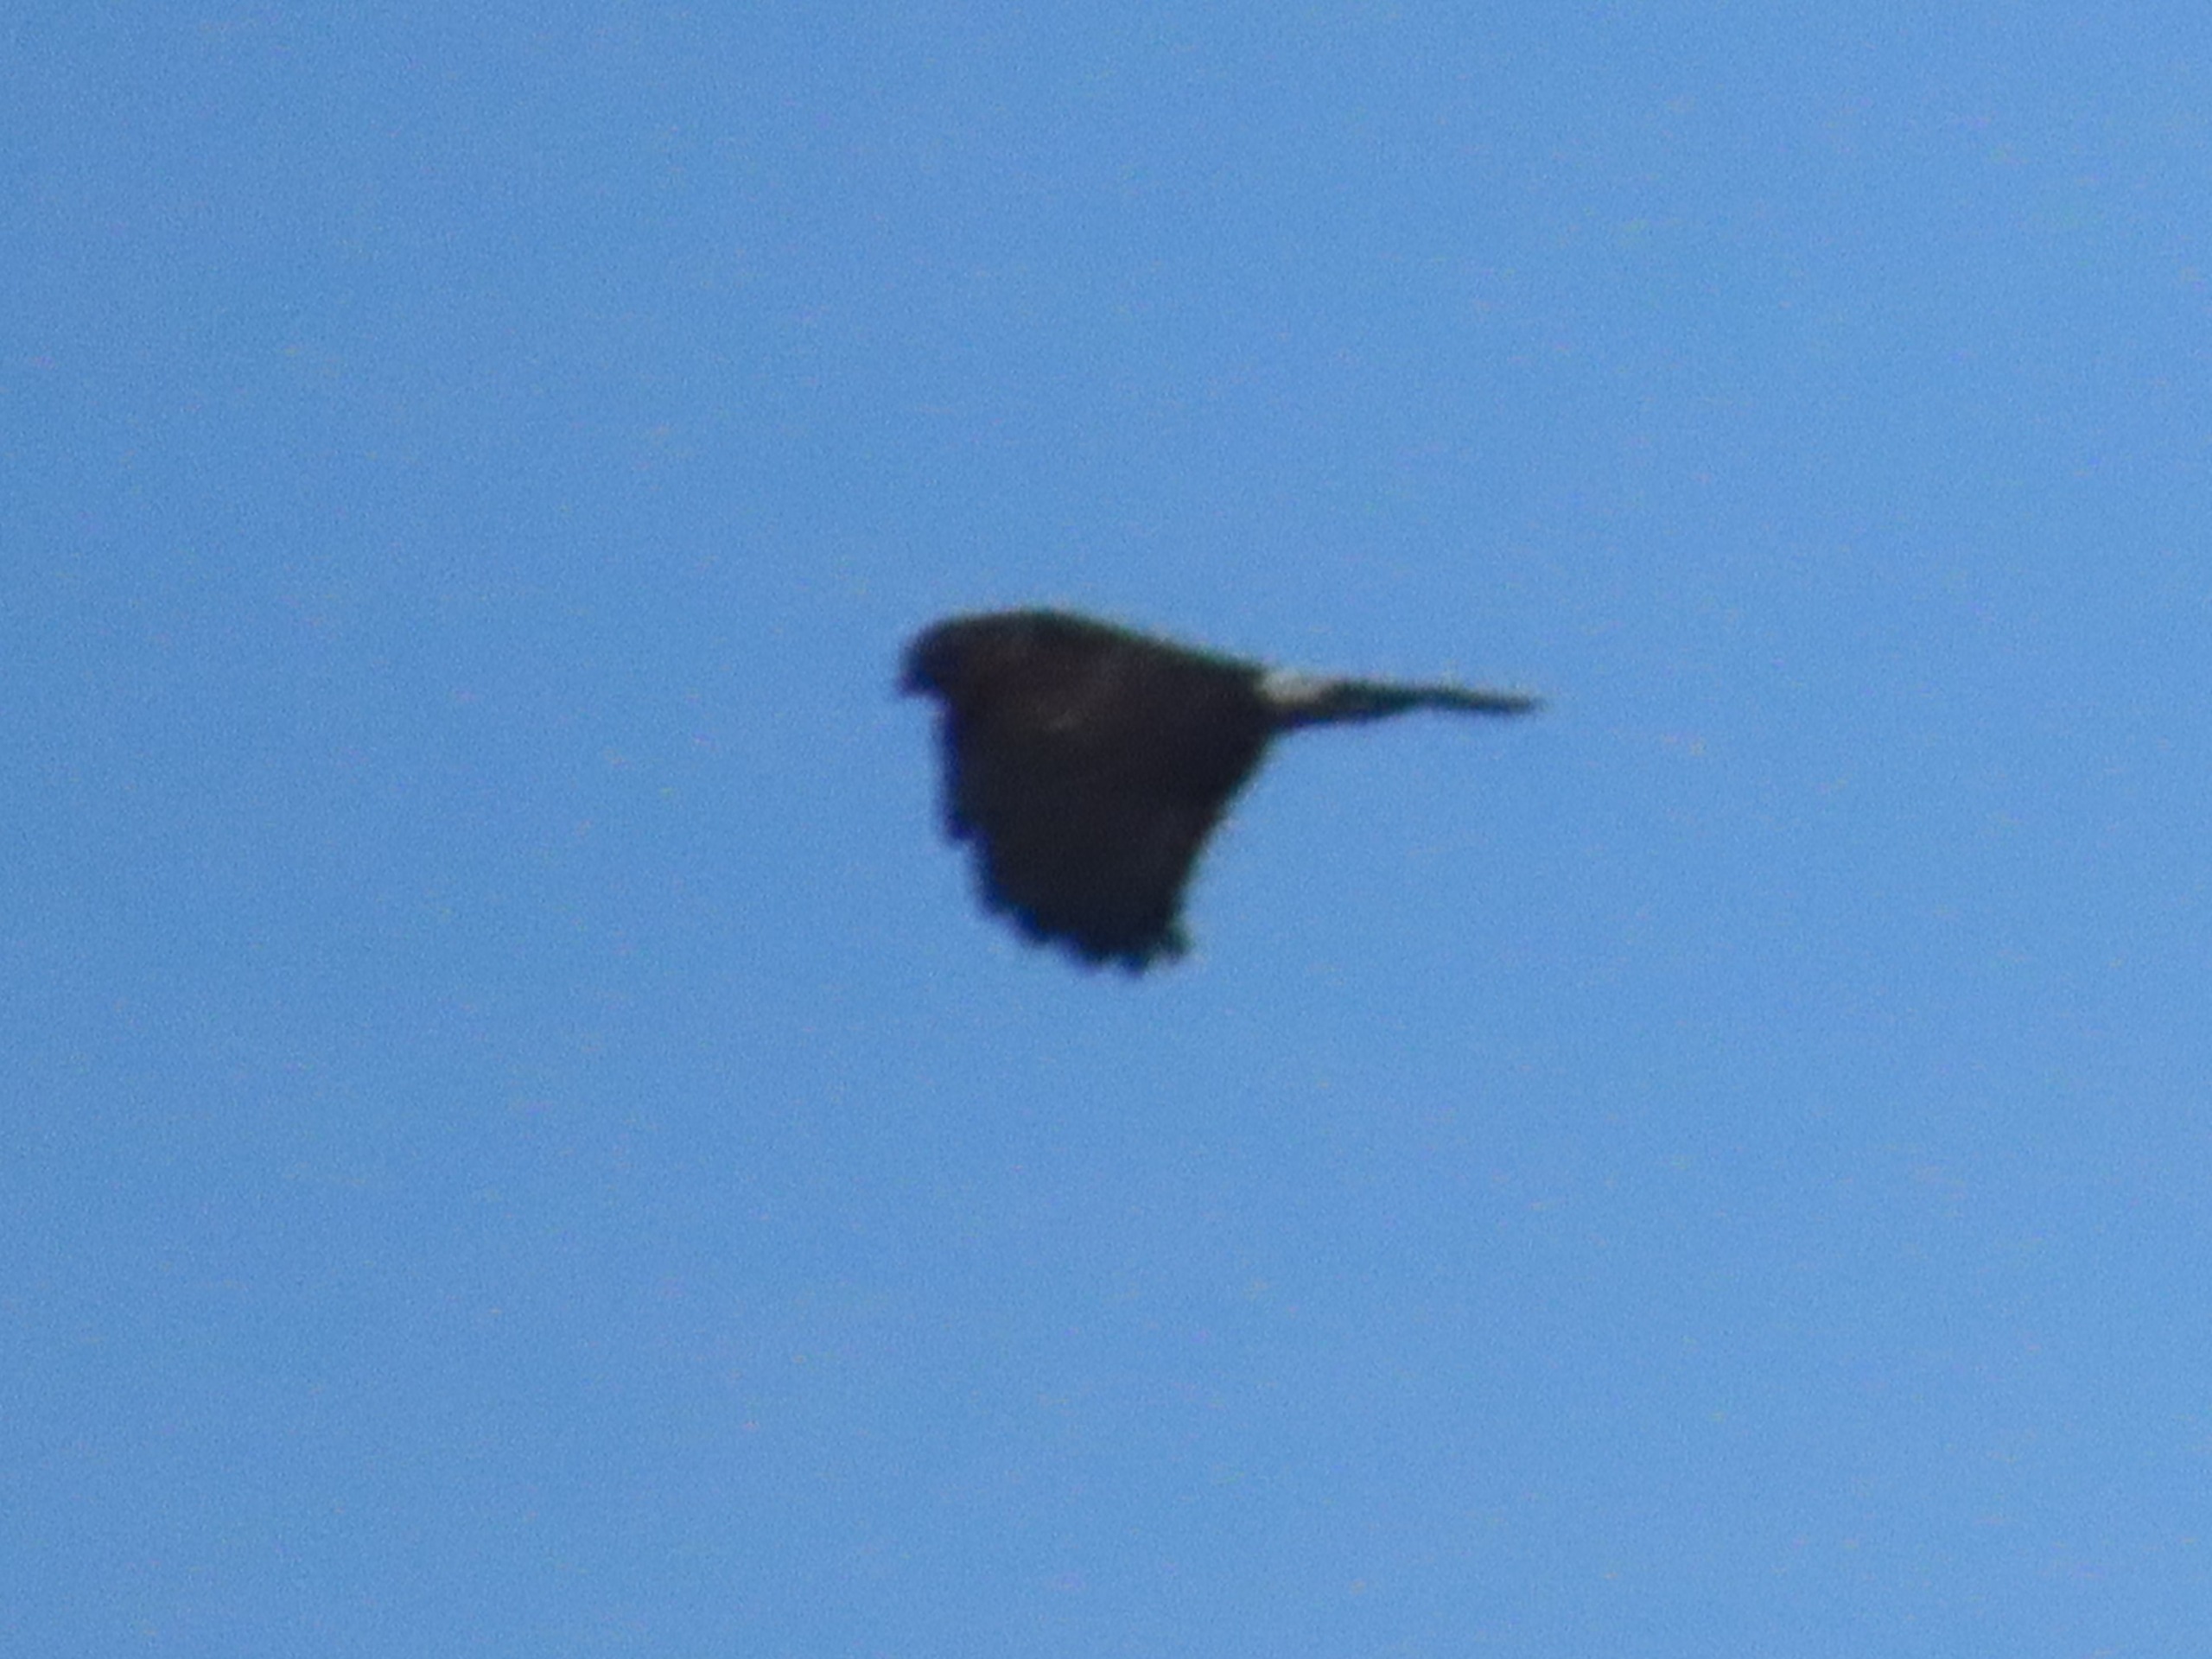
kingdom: Animalia
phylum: Chordata
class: Aves
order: Accipitriformes
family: Accipitridae
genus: Circus
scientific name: Circus cyaneus
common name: Blå kærhøg
